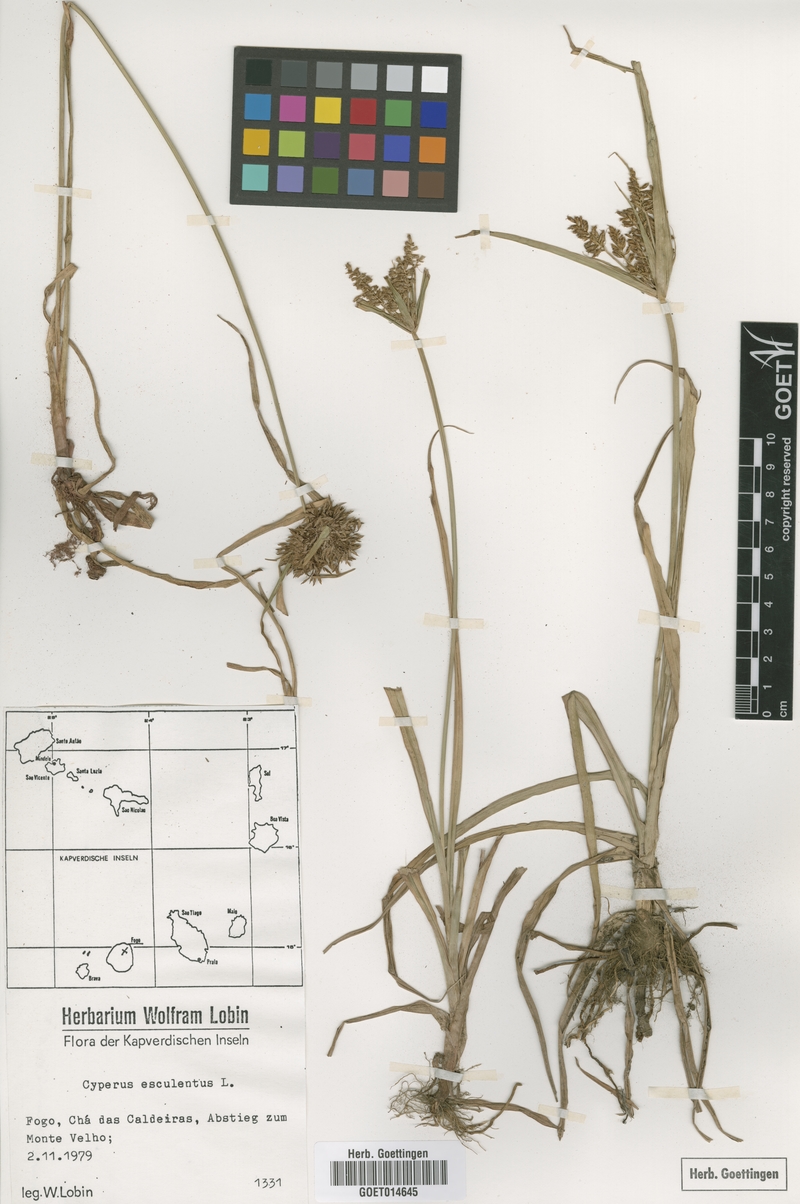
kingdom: Plantae
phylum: Tracheophyta
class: Liliopsida
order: Poales
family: Cyperaceae
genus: Cyperus
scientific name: Cyperus esculentus
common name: Yellow nutsedge
